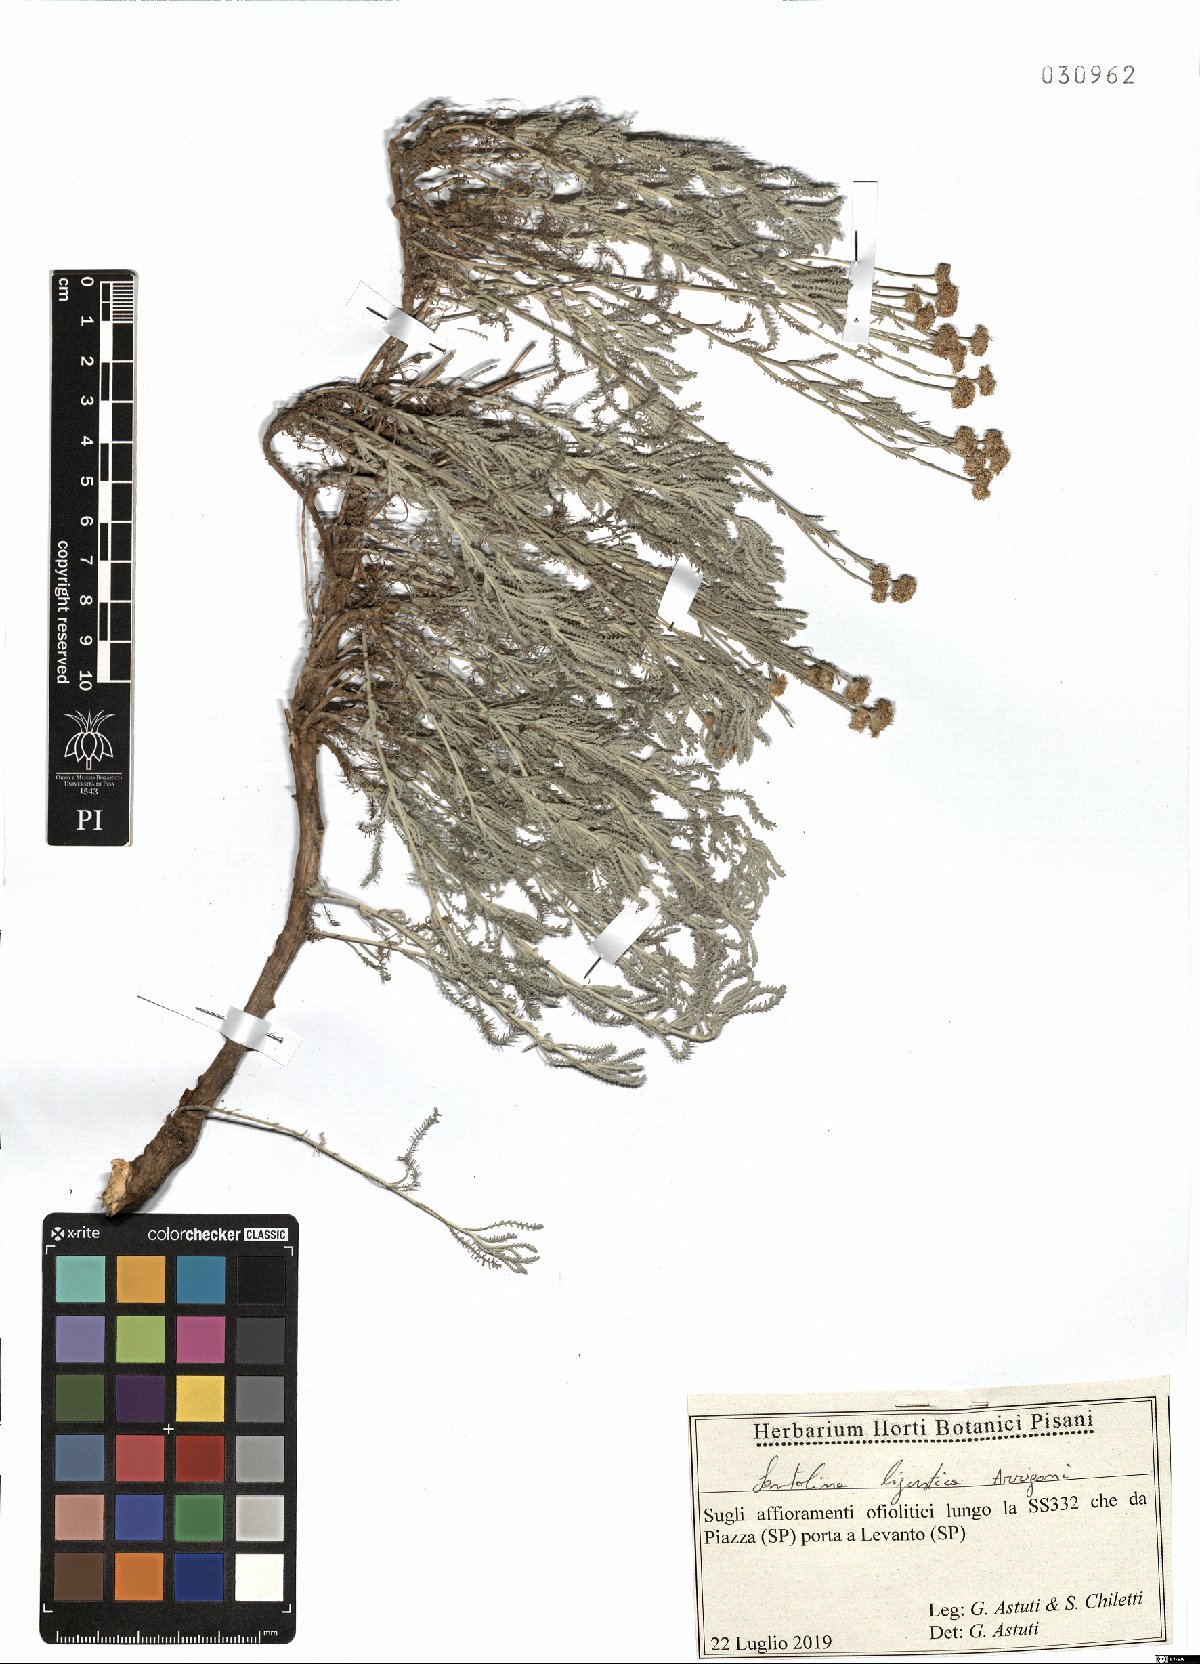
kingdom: Plantae
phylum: Tracheophyta
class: Magnoliopsida
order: Asterales
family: Asteraceae
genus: Santolina
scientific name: Santolina ligustica
